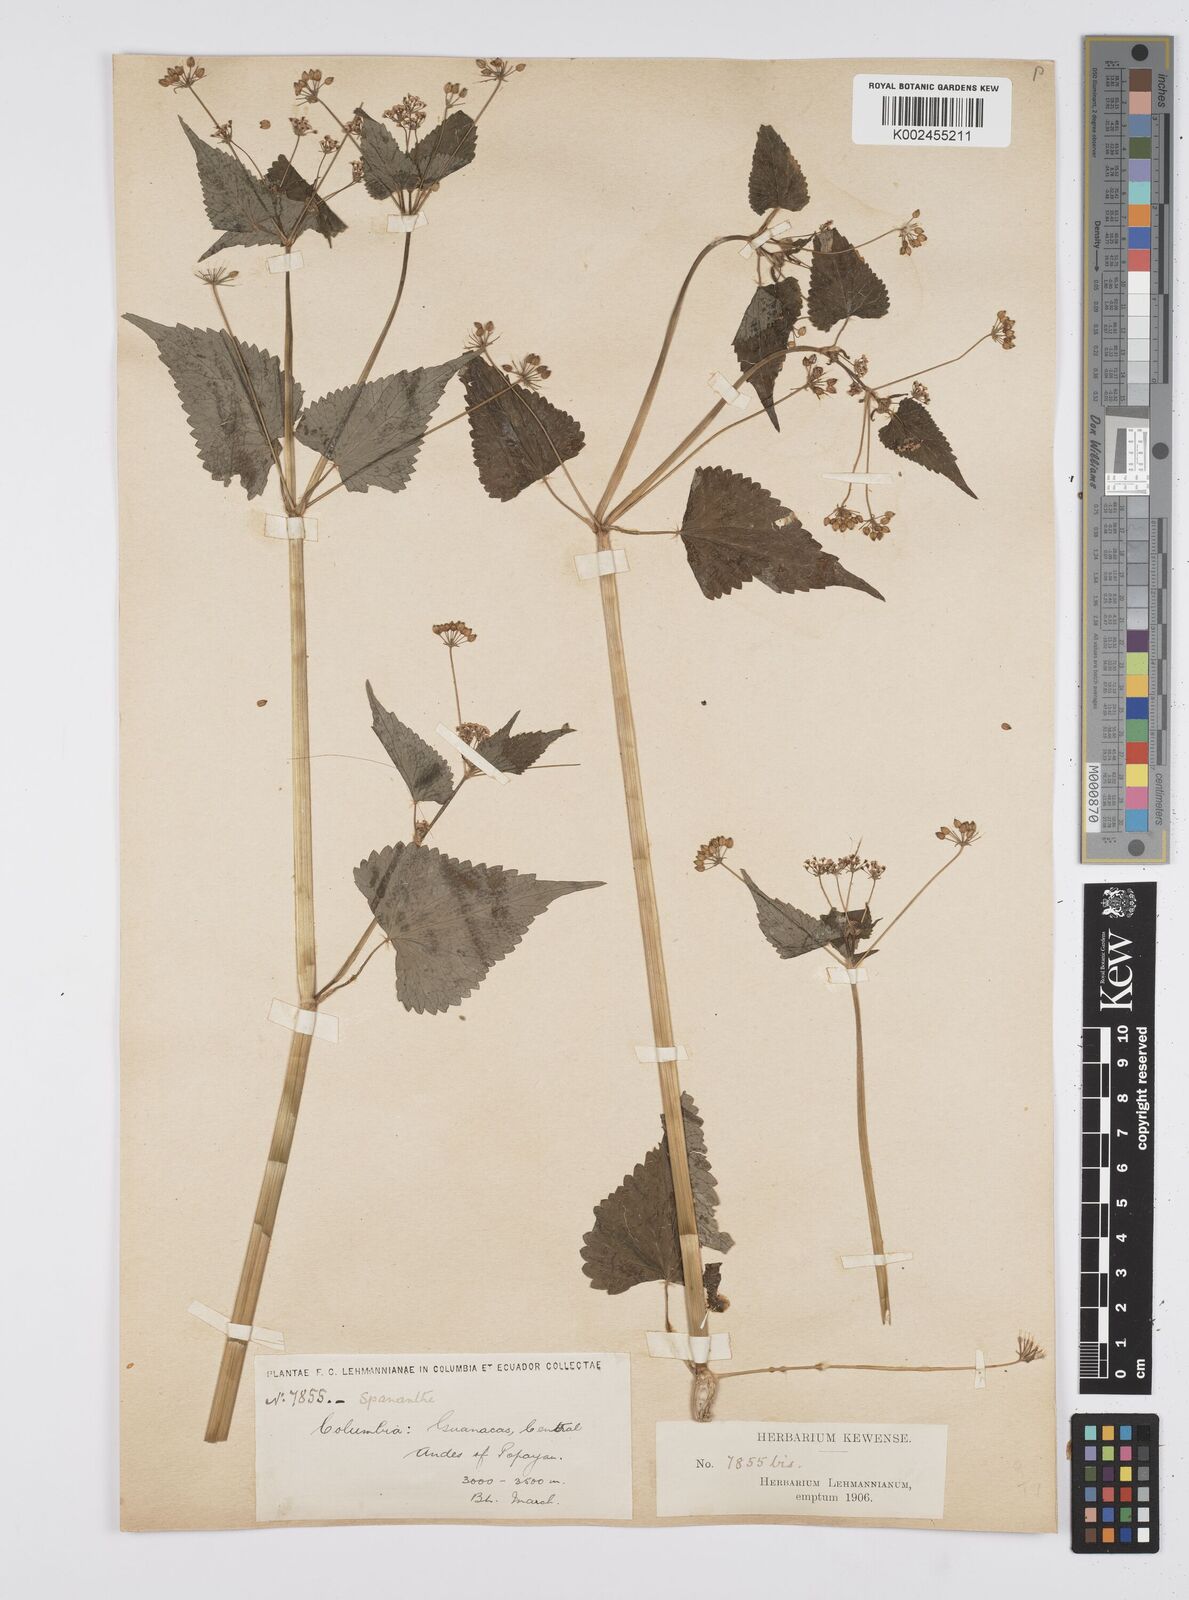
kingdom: Plantae
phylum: Tracheophyta
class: Magnoliopsida
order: Apiales
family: Apiaceae
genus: Azorella
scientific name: Azorella
